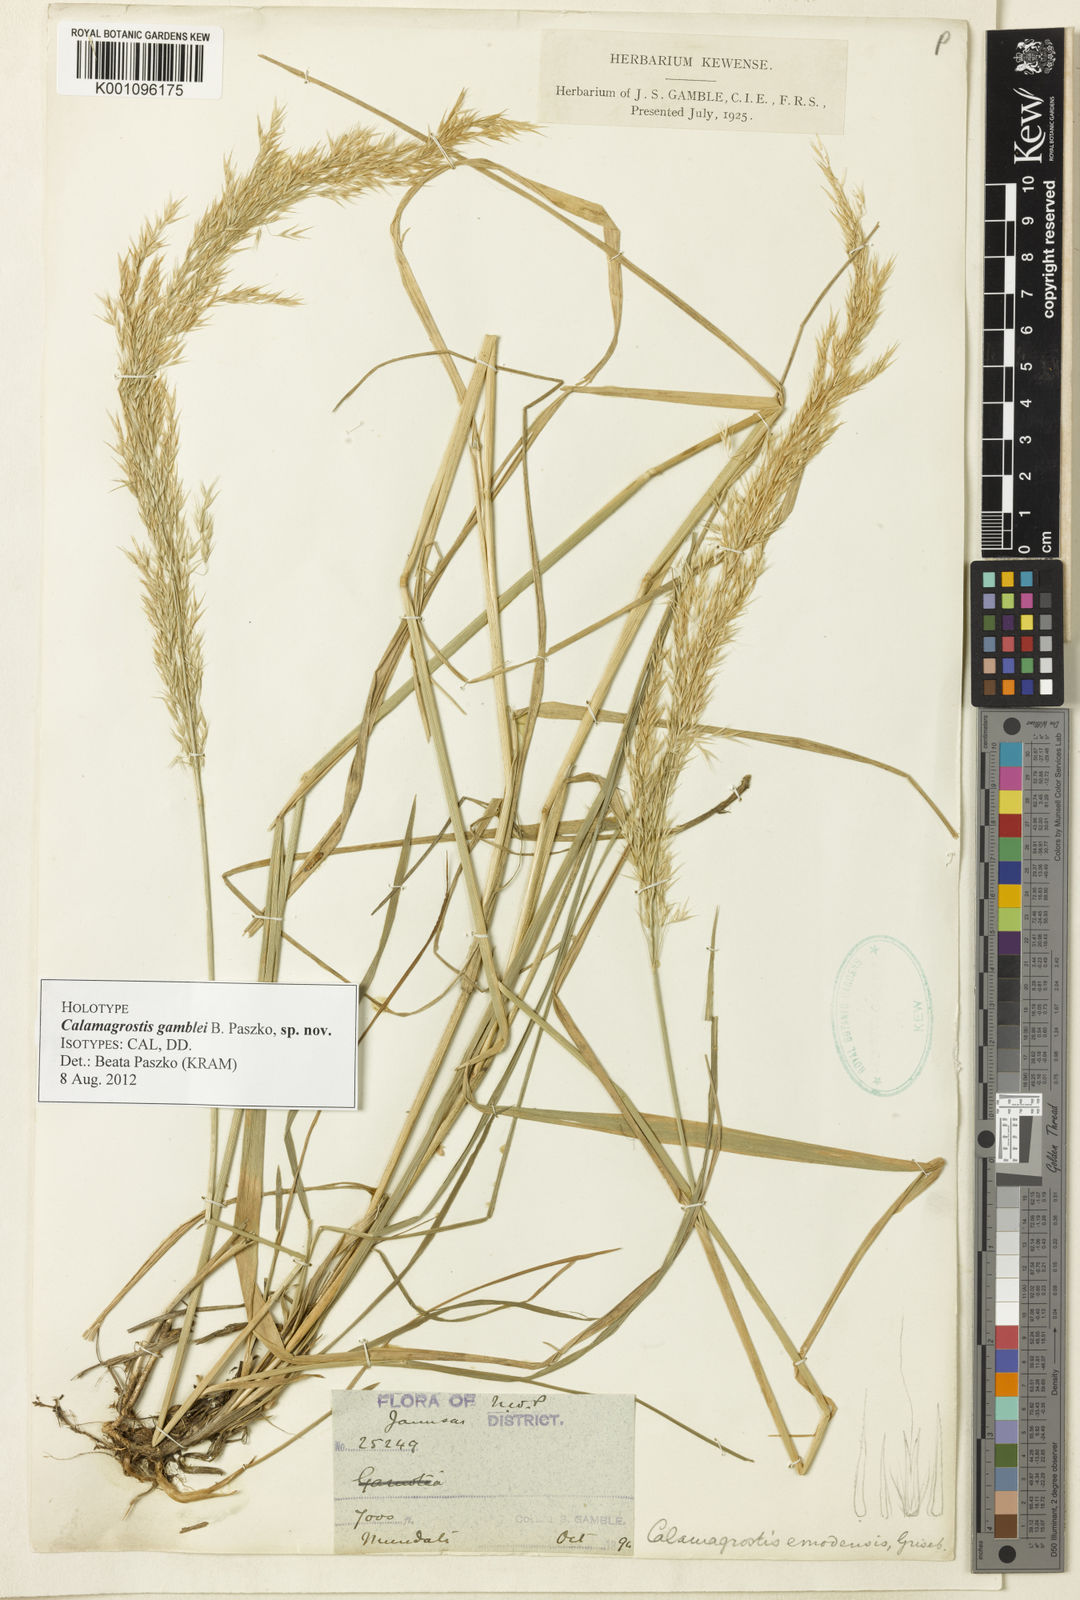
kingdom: Plantae
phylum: Tracheophyta
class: Liliopsida
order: Poales
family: Poaceae
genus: Calamagrostis
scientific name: Calamagrostis gamblei
